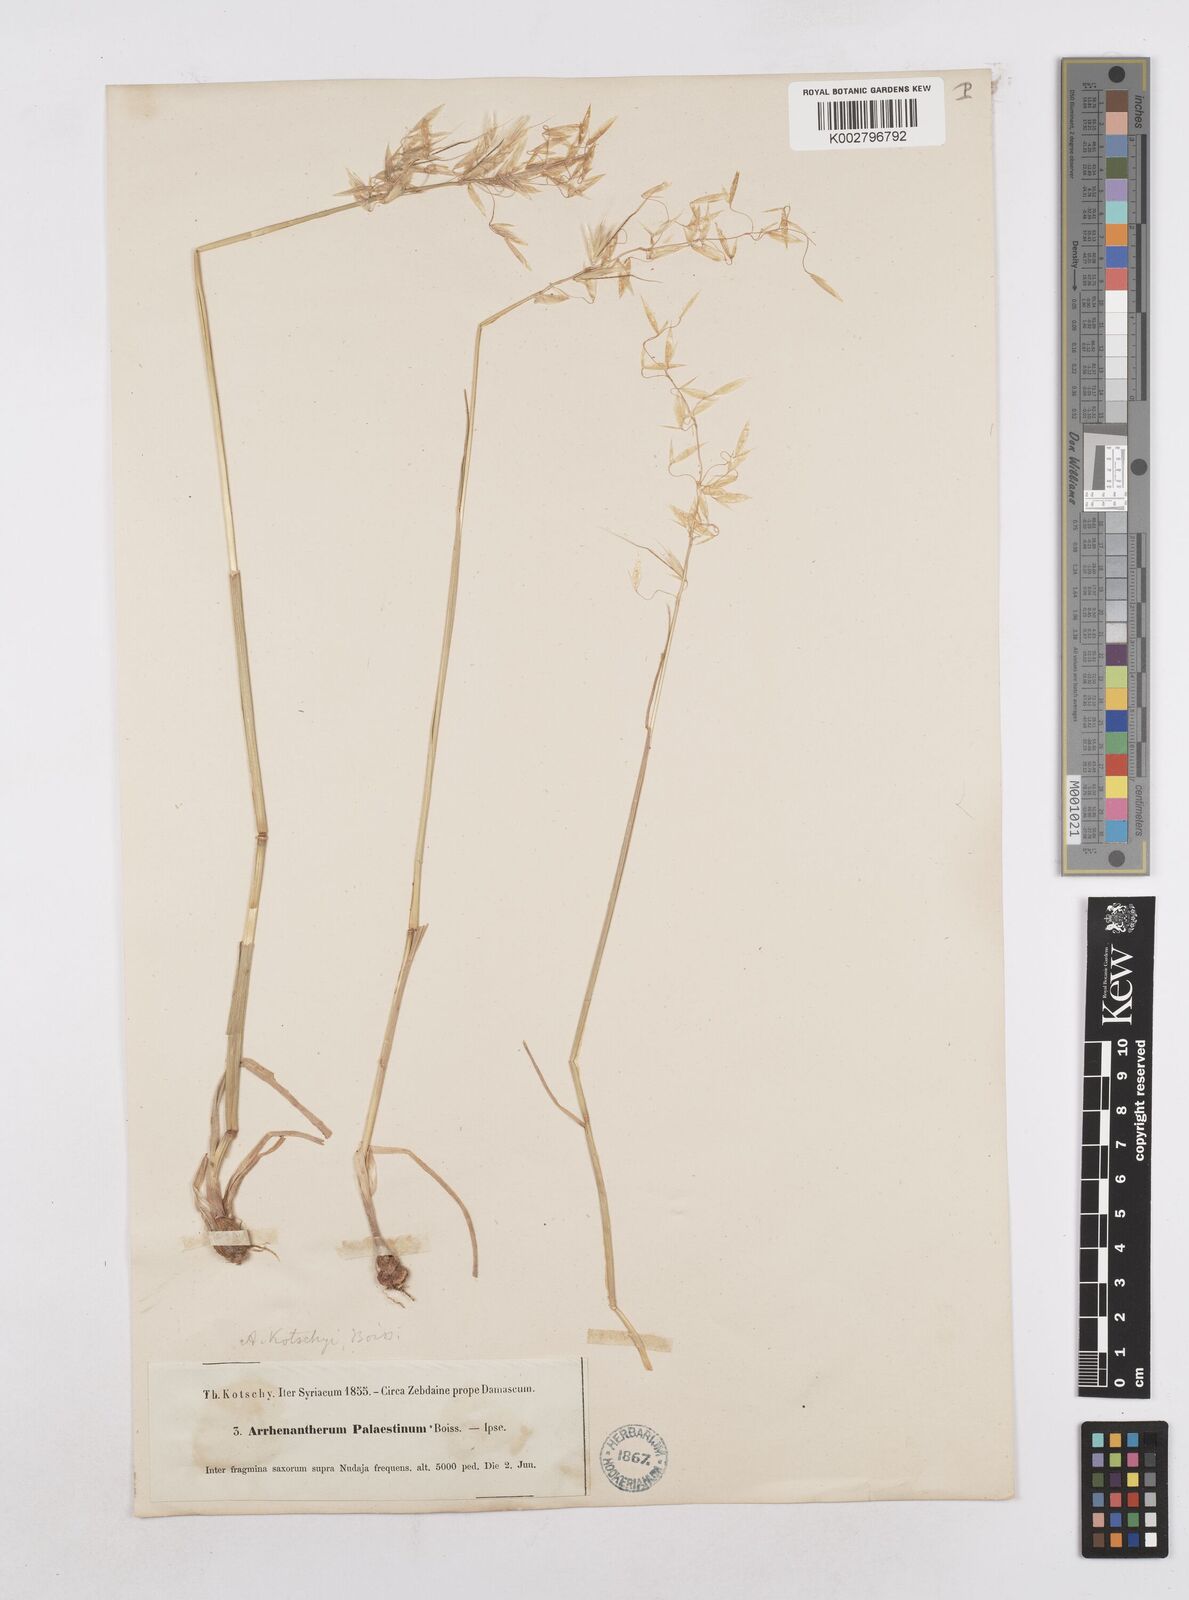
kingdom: Plantae
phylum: Tracheophyta
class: Liliopsida
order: Poales
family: Poaceae
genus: Arrhenatherum
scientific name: Arrhenatherum kotschyi
